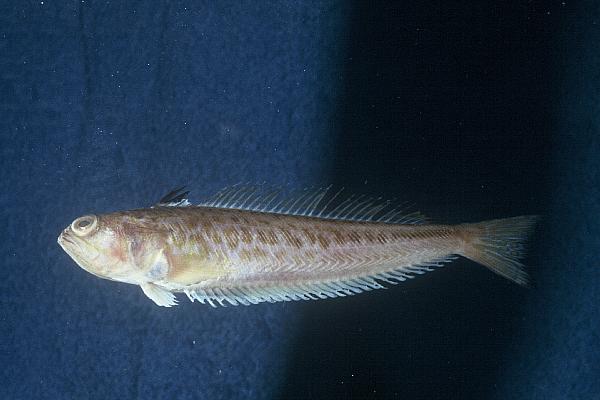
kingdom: Animalia
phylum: Chordata
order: Perciformes
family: Trachinidae
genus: Trachinus
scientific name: Trachinus draco
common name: Greater weever
